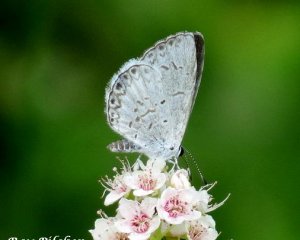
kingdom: Animalia
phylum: Arthropoda
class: Insecta
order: Lepidoptera
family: Lycaenidae
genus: Cyaniris
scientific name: Cyaniris neglecta
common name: Summer Azure
